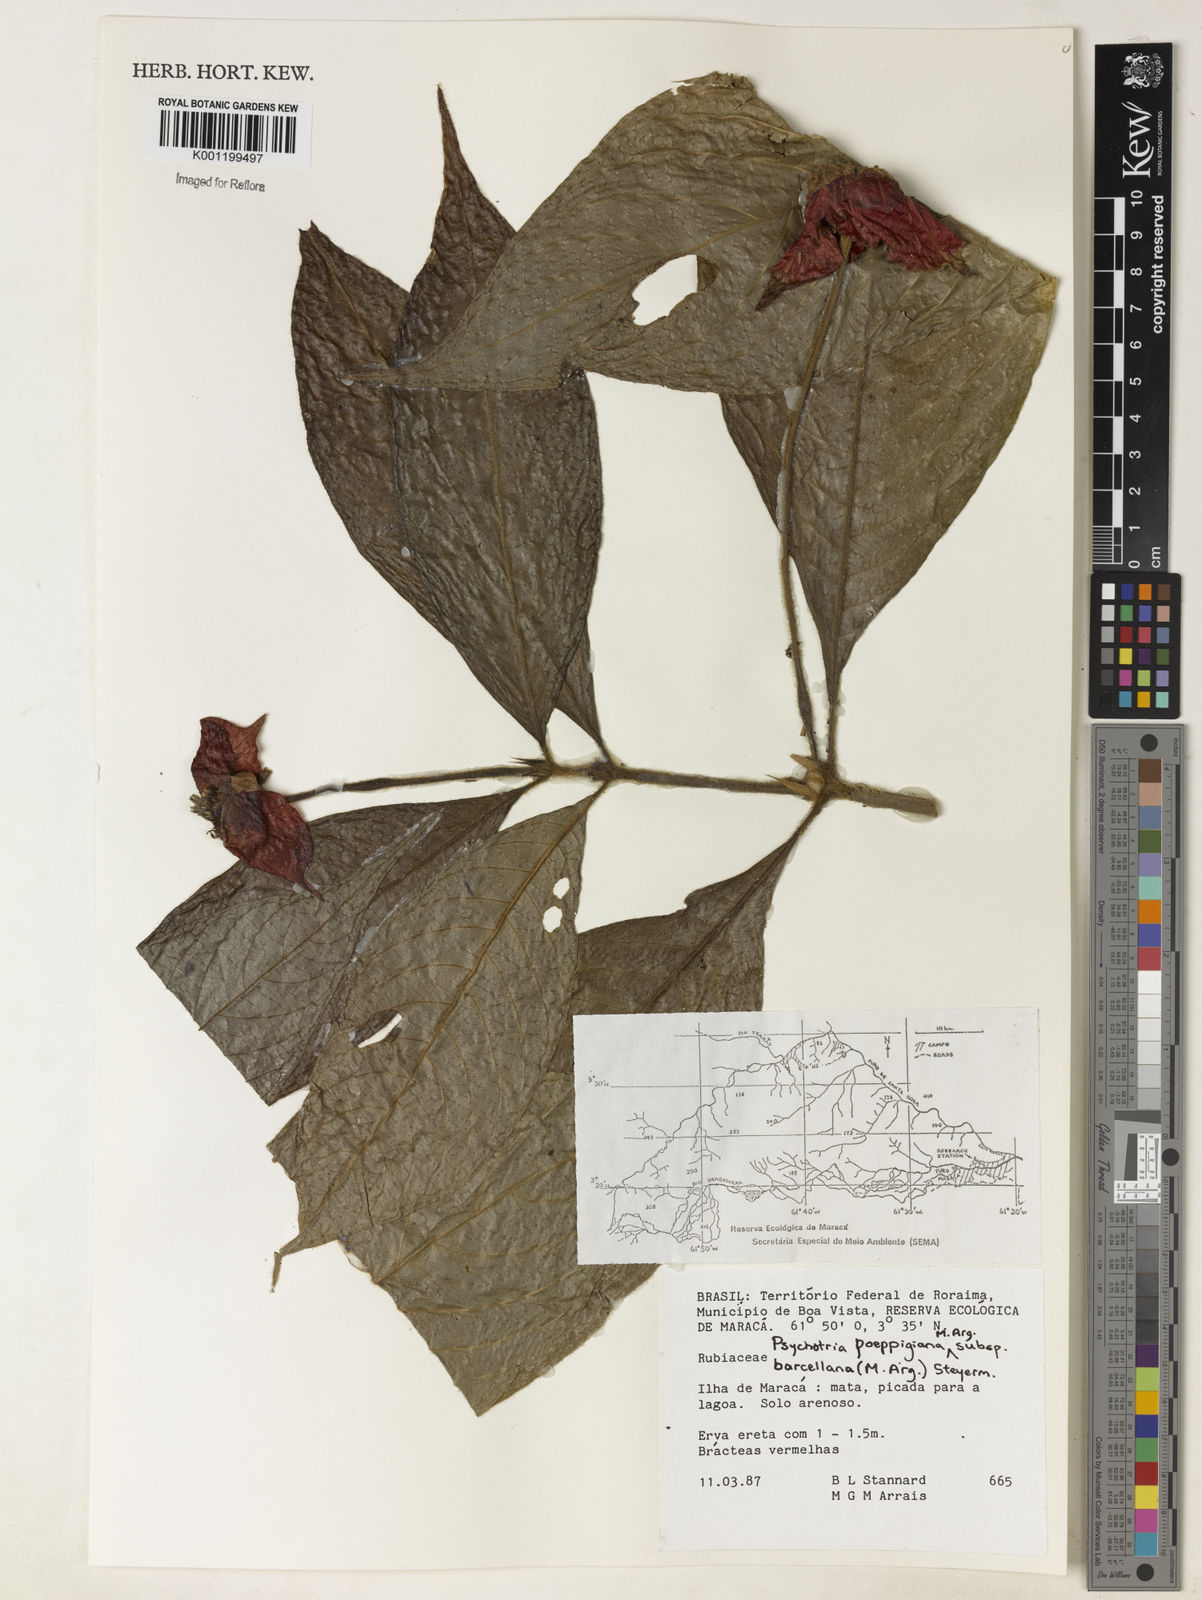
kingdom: Plantae
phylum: Tracheophyta
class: Magnoliopsida
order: Gentianales
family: Rubiaceae
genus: Psychotria
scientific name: Psychotria
